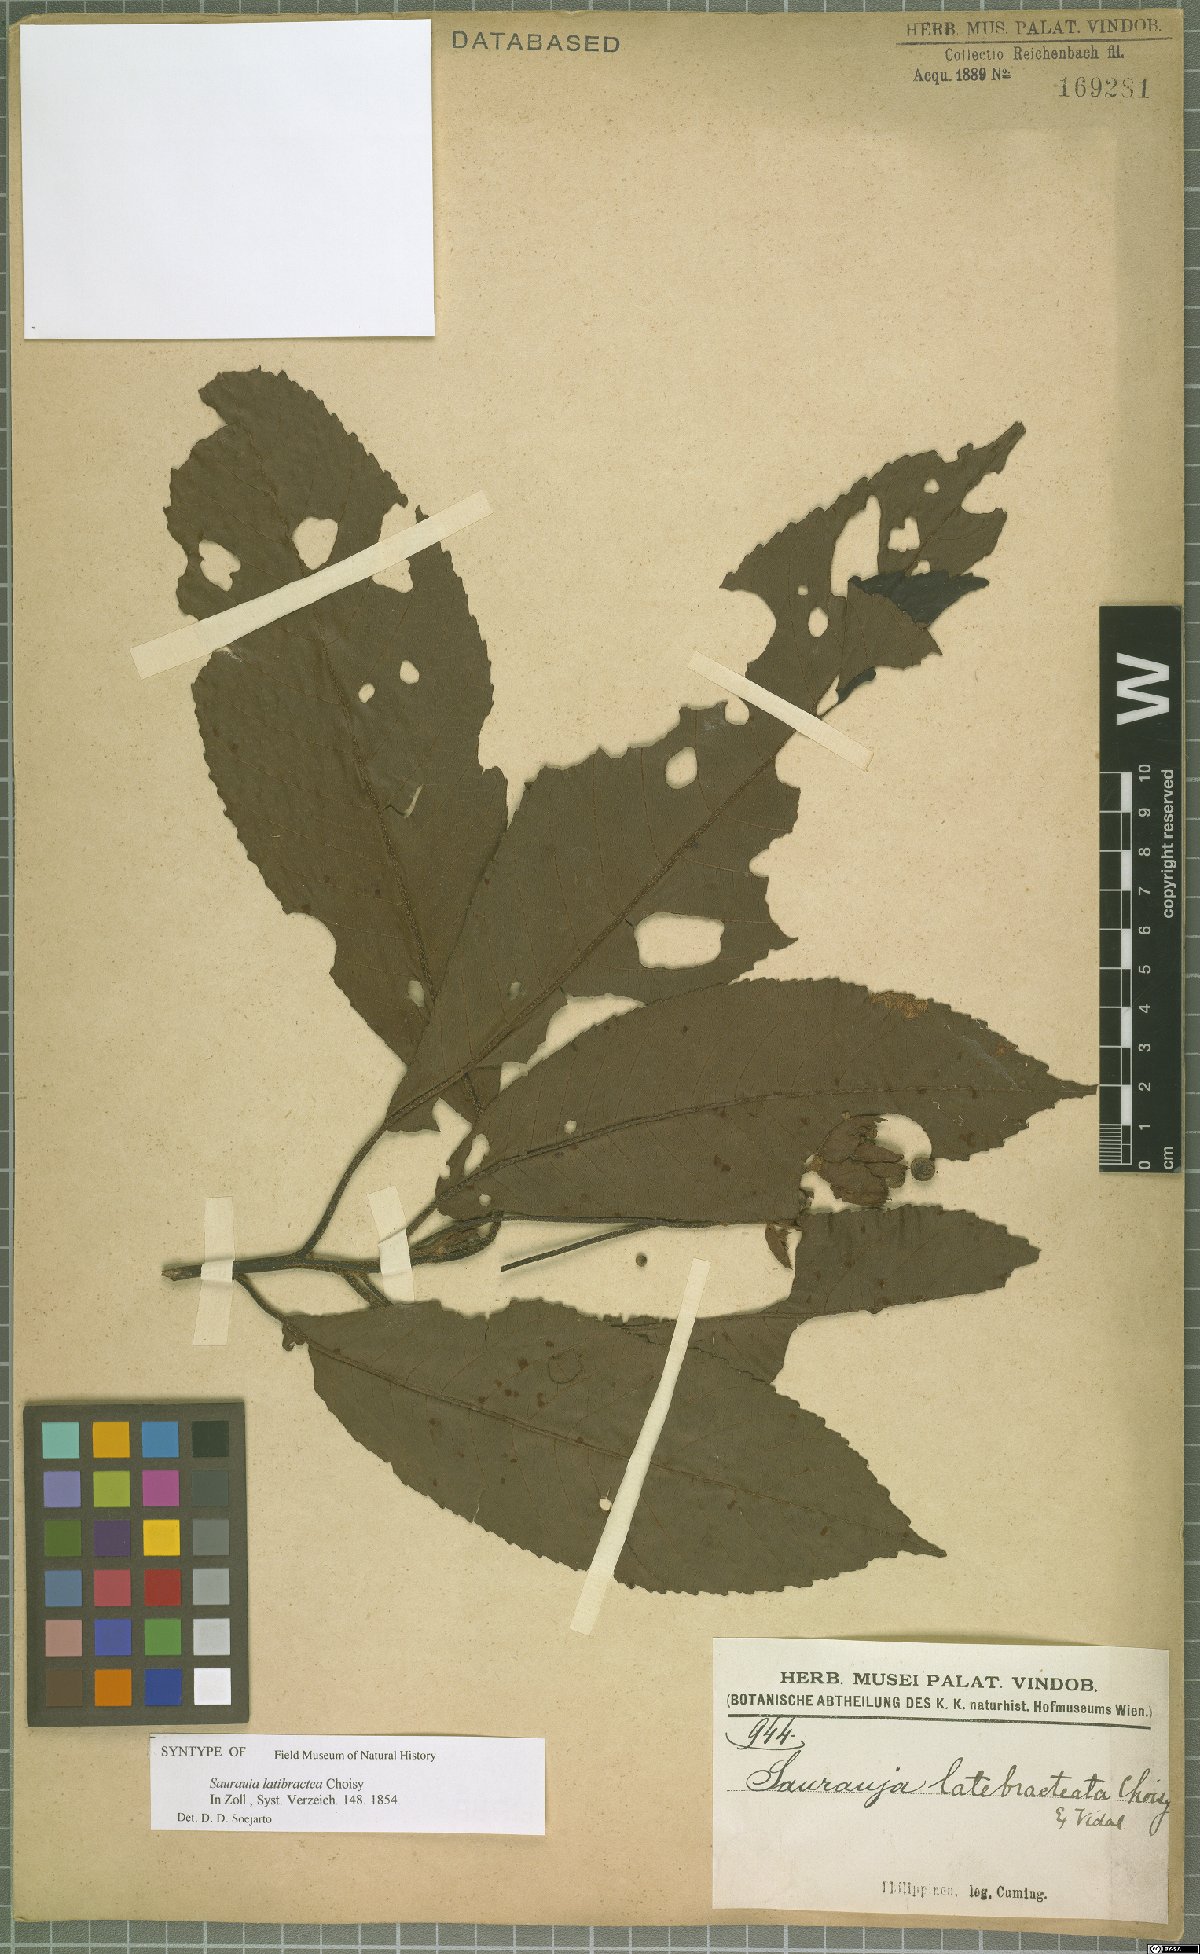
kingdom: Plantae
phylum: Tracheophyta
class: Magnoliopsida
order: Ericales
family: Actinidiaceae
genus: Saurauia
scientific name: Saurauia latibractea
